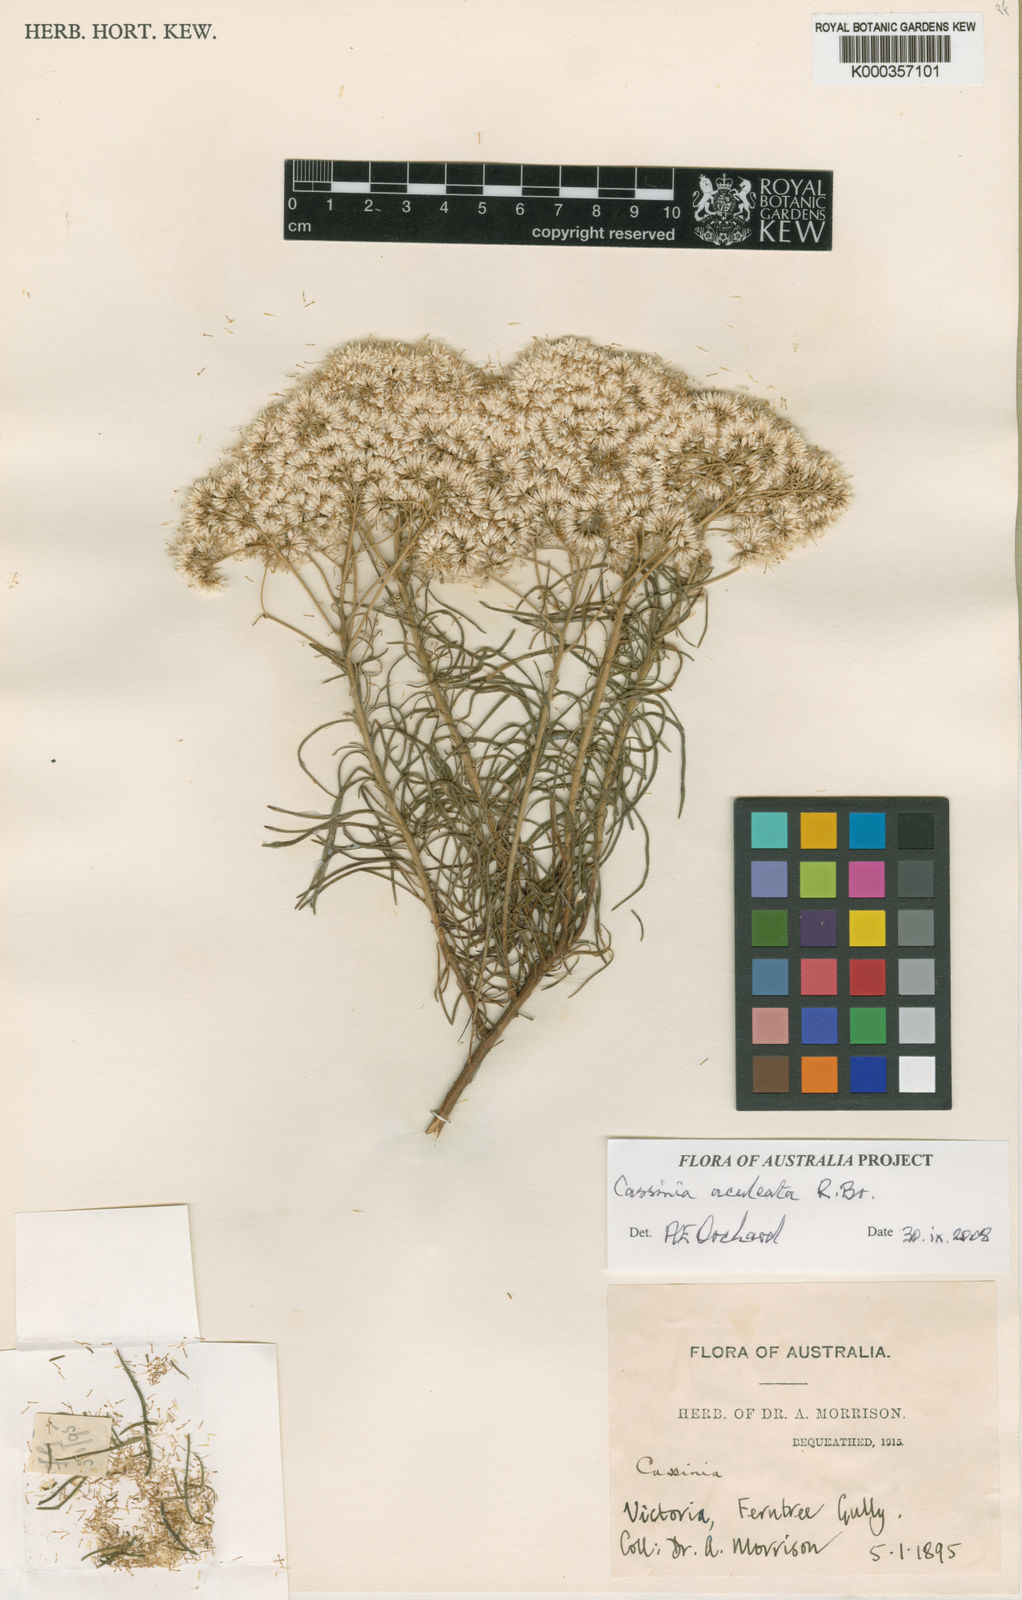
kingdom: Plantae
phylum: Tracheophyta
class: Magnoliopsida
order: Asterales
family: Asteraceae
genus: Cassinia
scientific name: Cassinia aculeata
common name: Australian tauhinu
